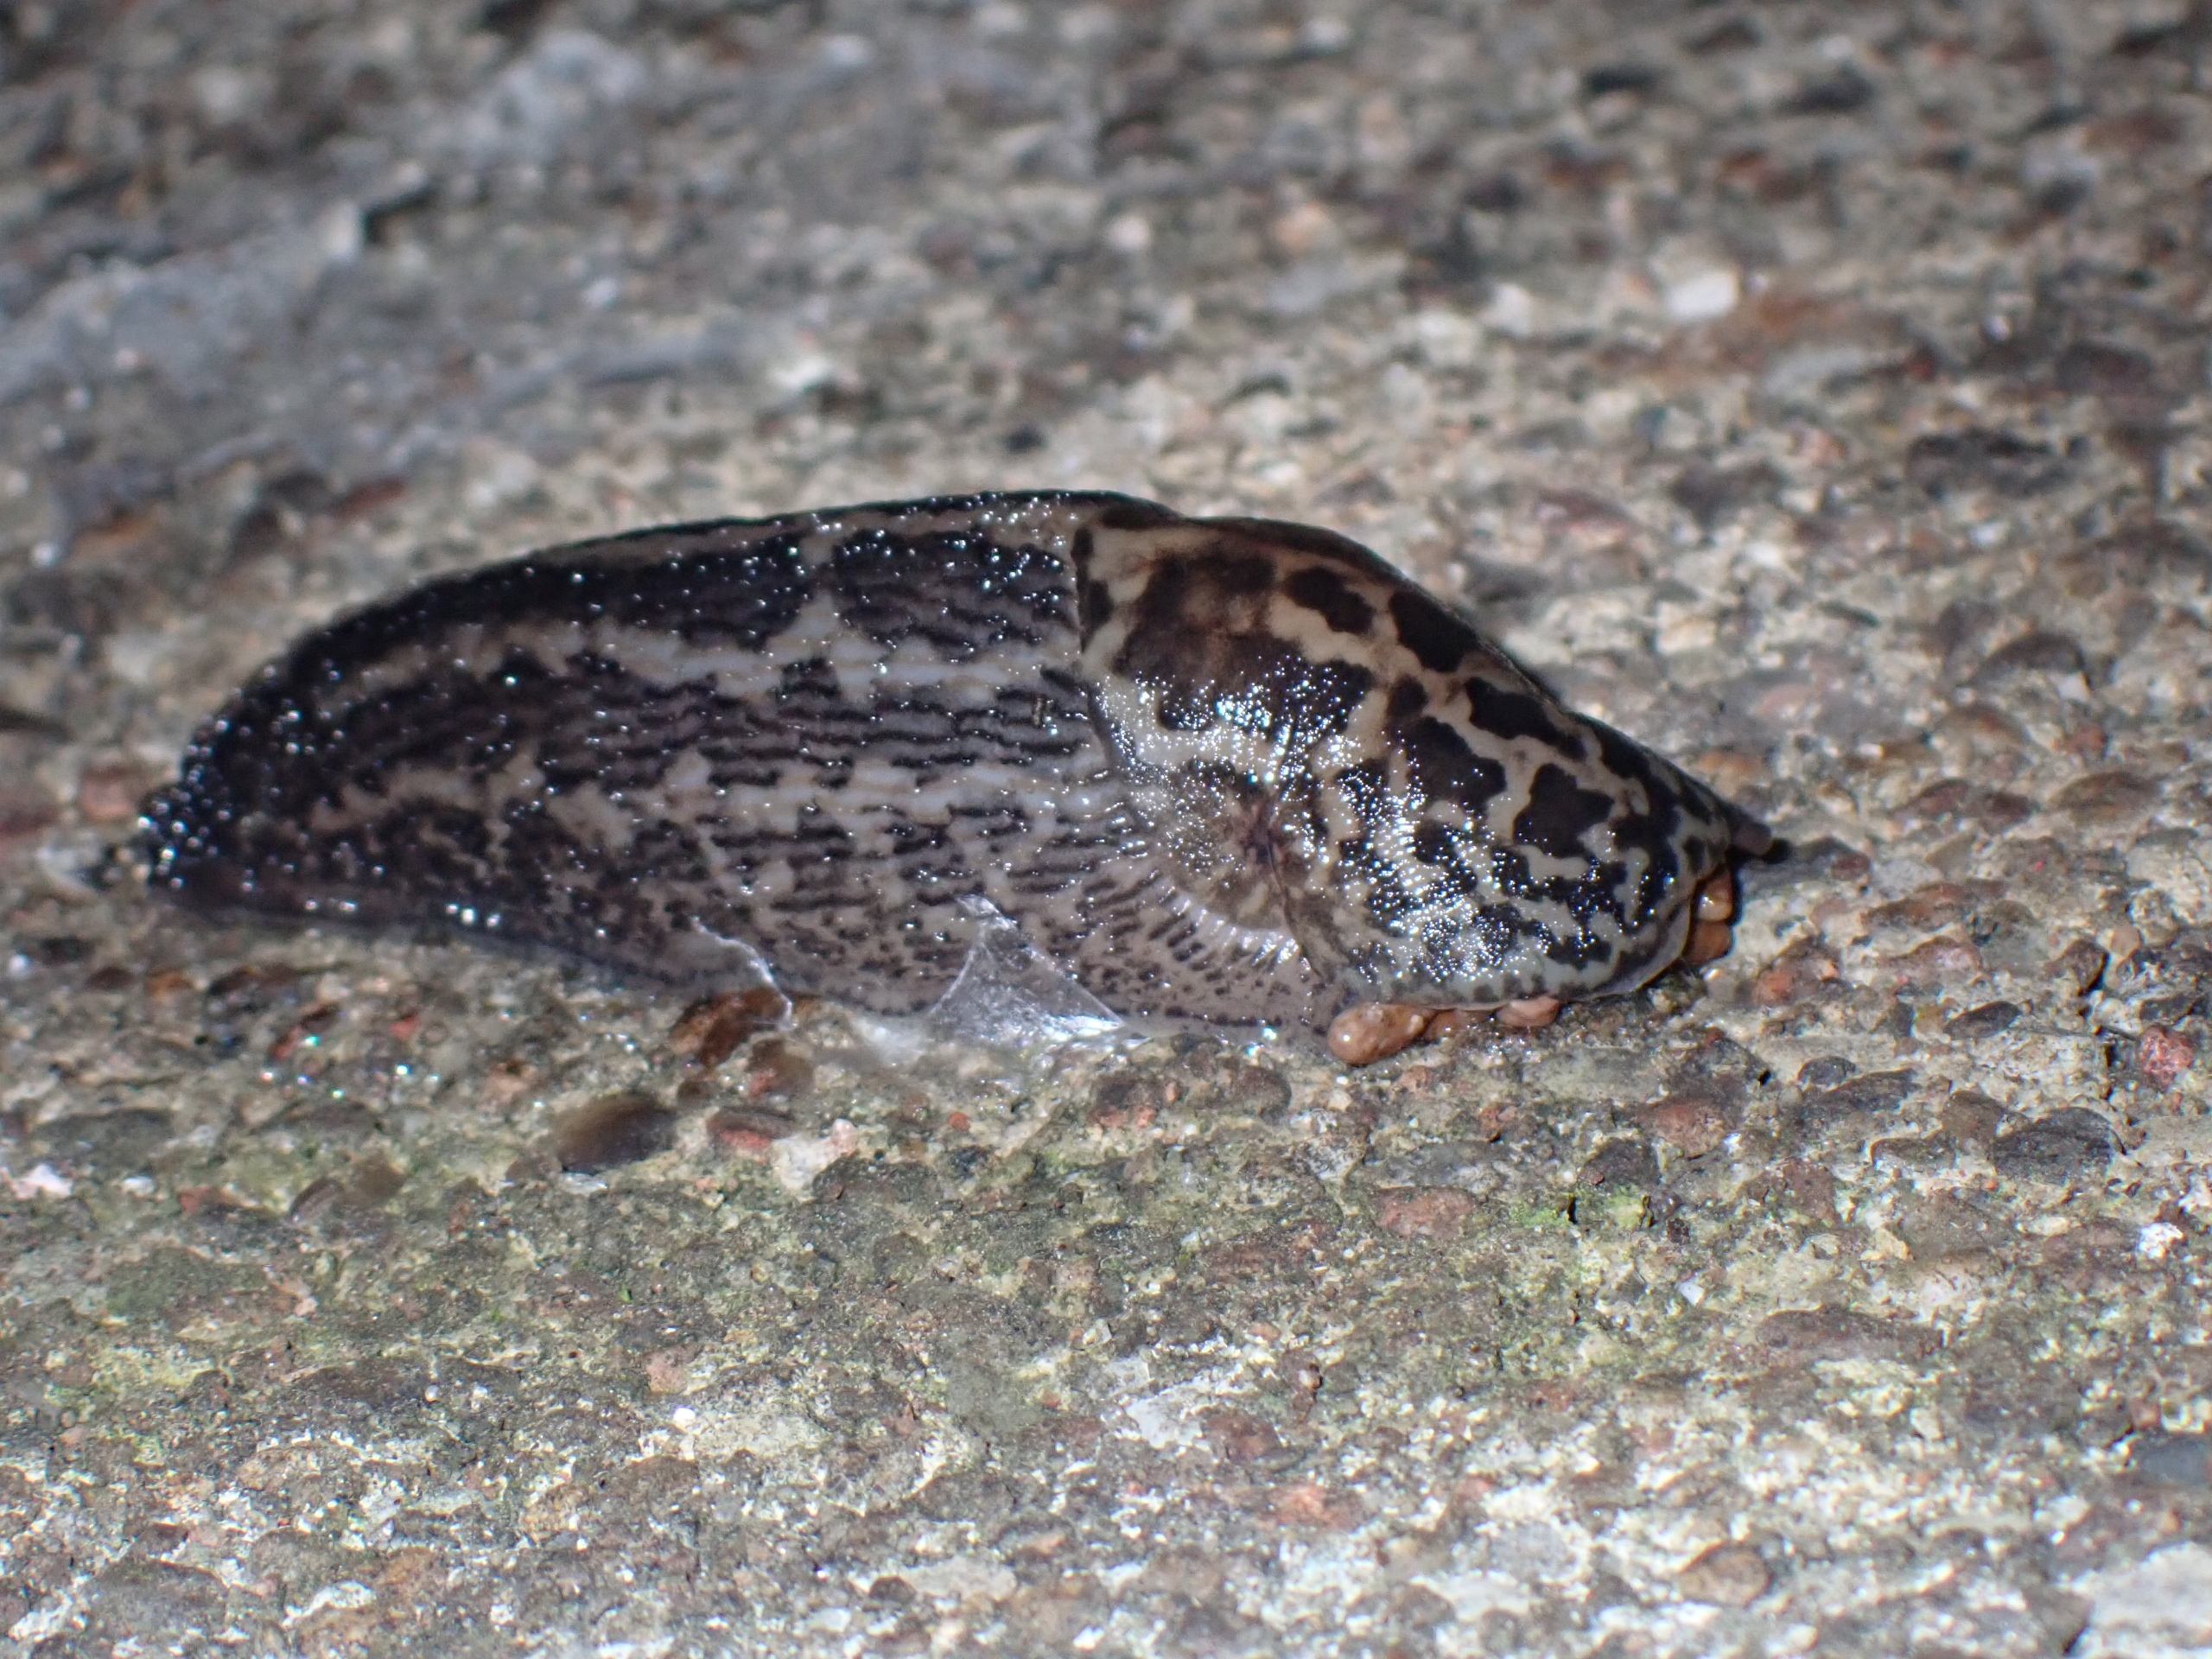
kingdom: Animalia
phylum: Mollusca
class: Gastropoda
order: Stylommatophora
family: Limacidae
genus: Limax
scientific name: Limax maximus
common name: Pantersnegl
